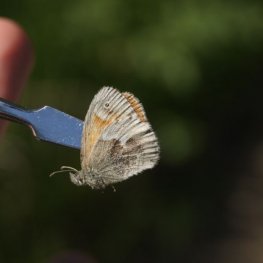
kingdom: Animalia
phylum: Arthropoda
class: Insecta
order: Lepidoptera
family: Nymphalidae
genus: Coenonympha
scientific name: Coenonympha tullia
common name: Large Heath
